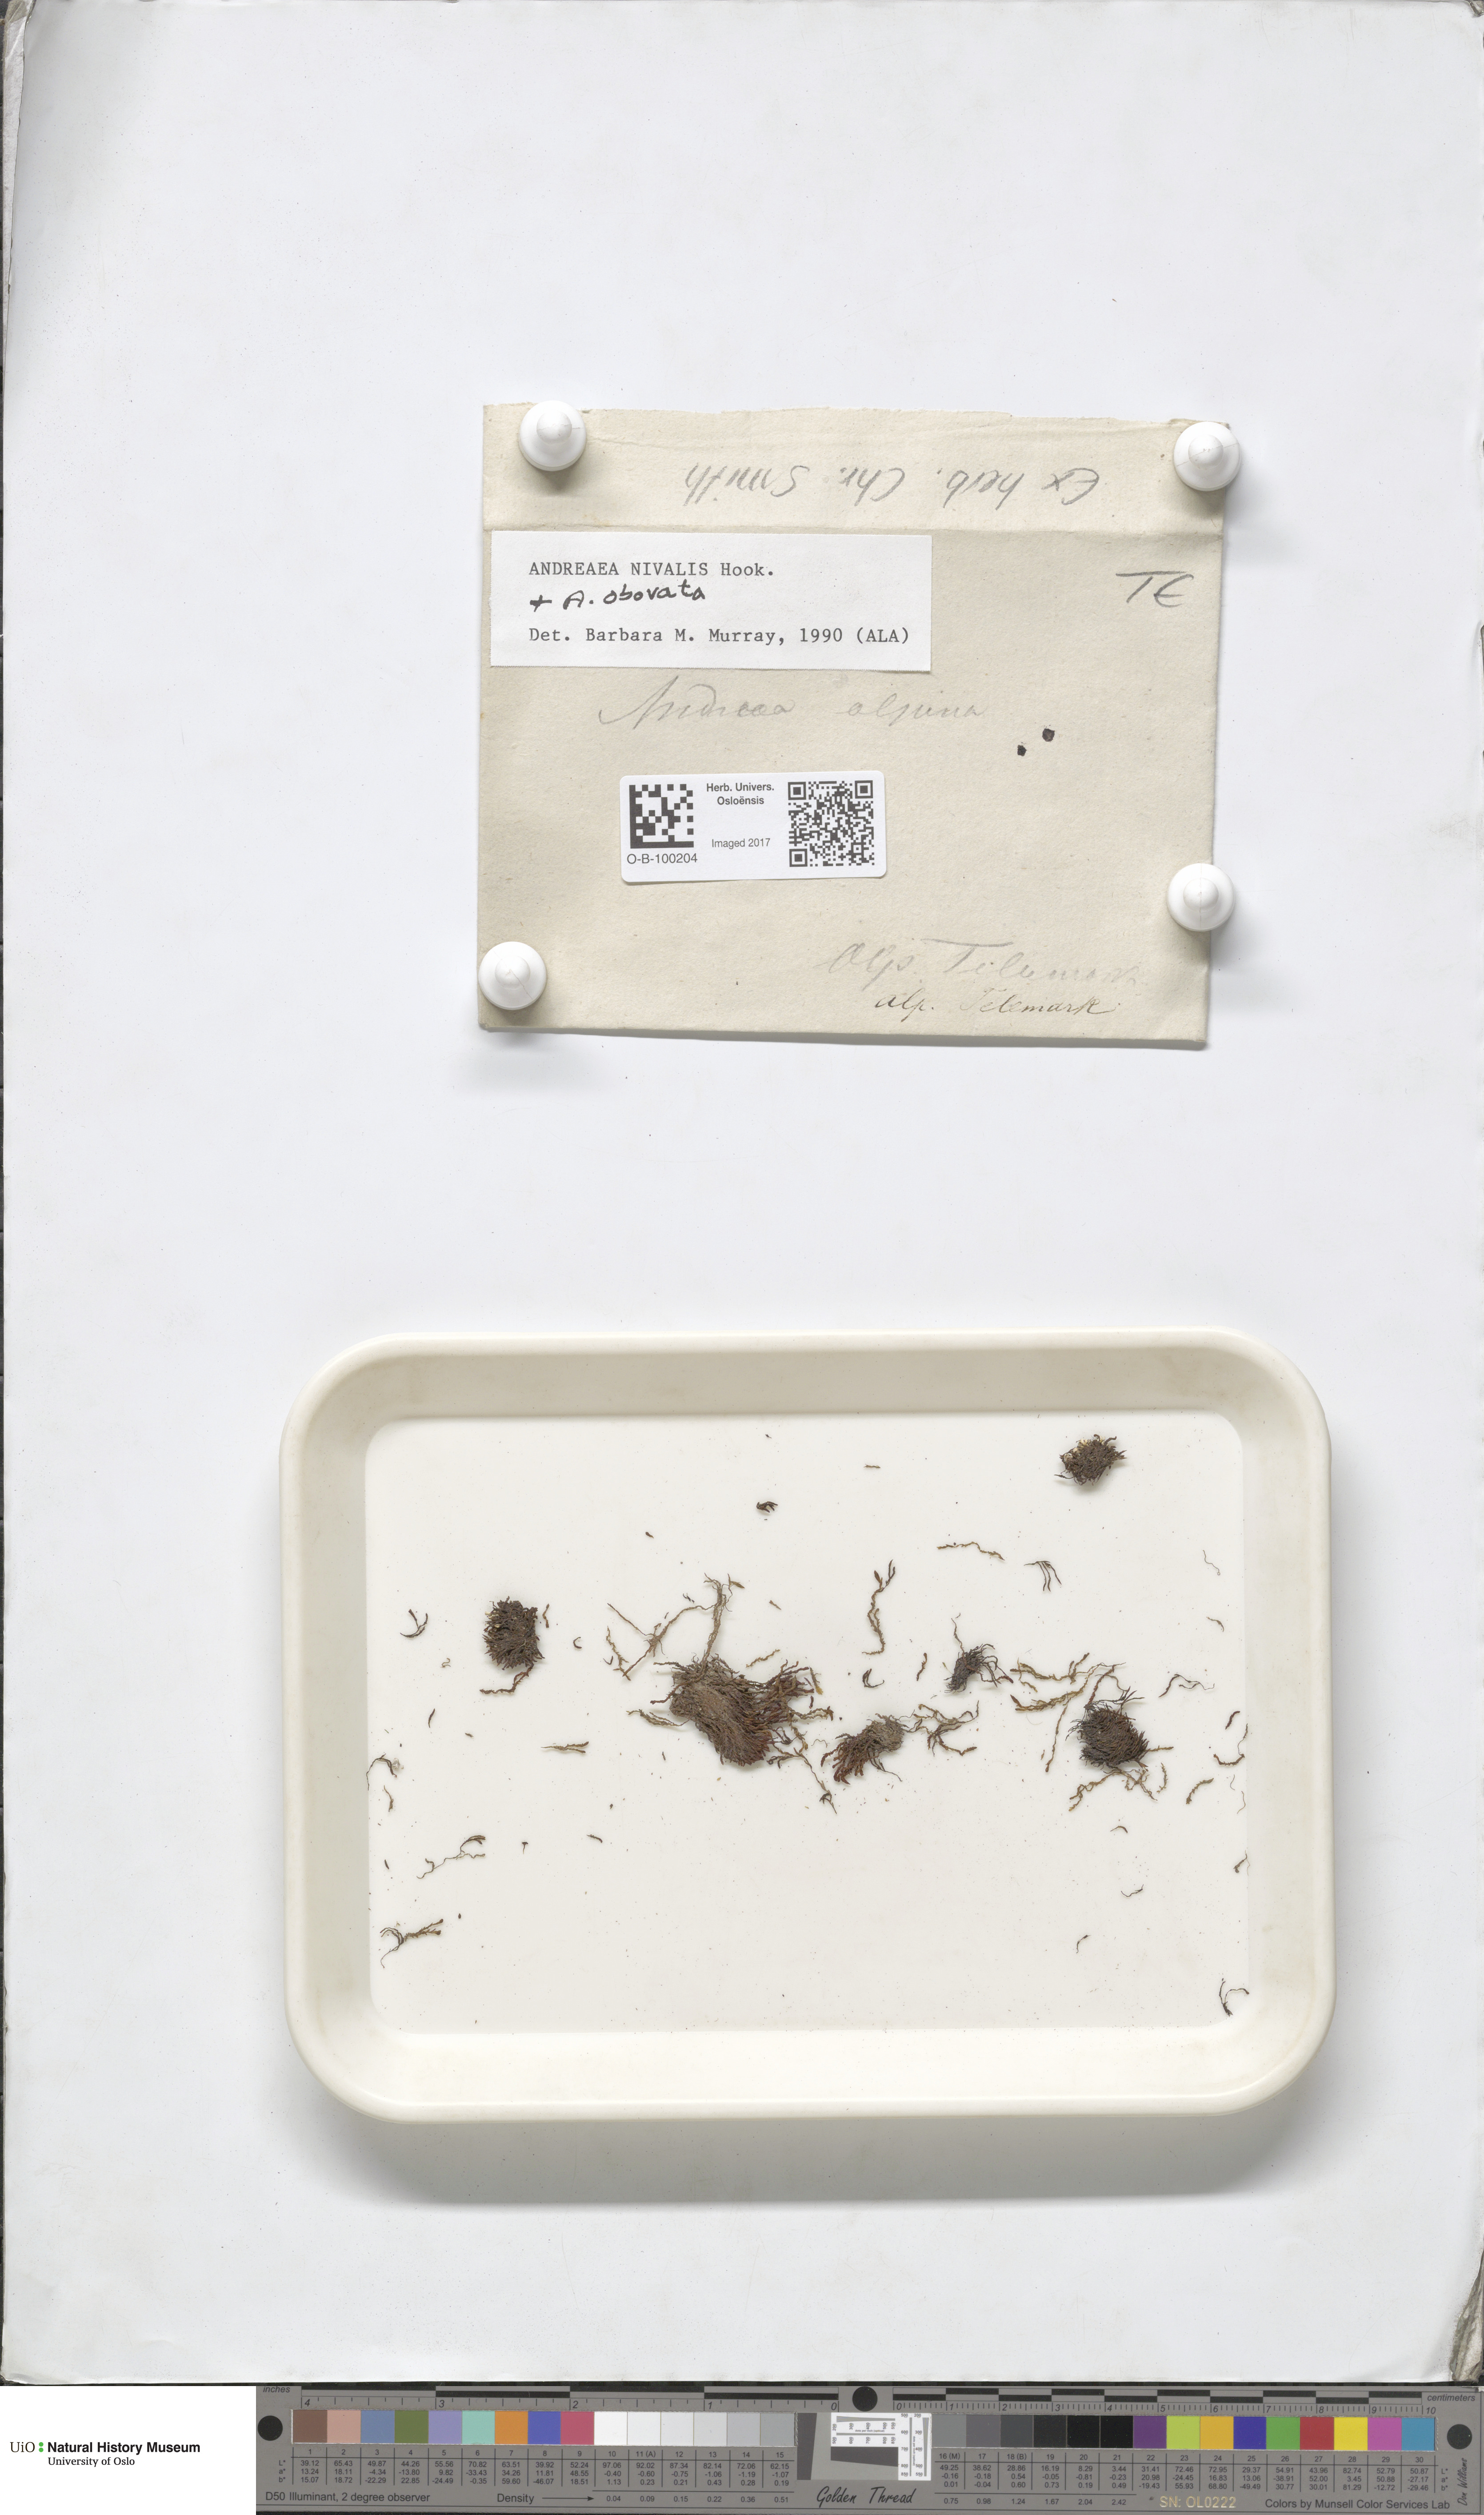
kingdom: Plantae
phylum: Bryophyta
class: Andreaeopsida
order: Andreaeales
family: Andreaeaceae
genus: Andreaea
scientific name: Andreaea nivalis
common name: Snow rock moss
